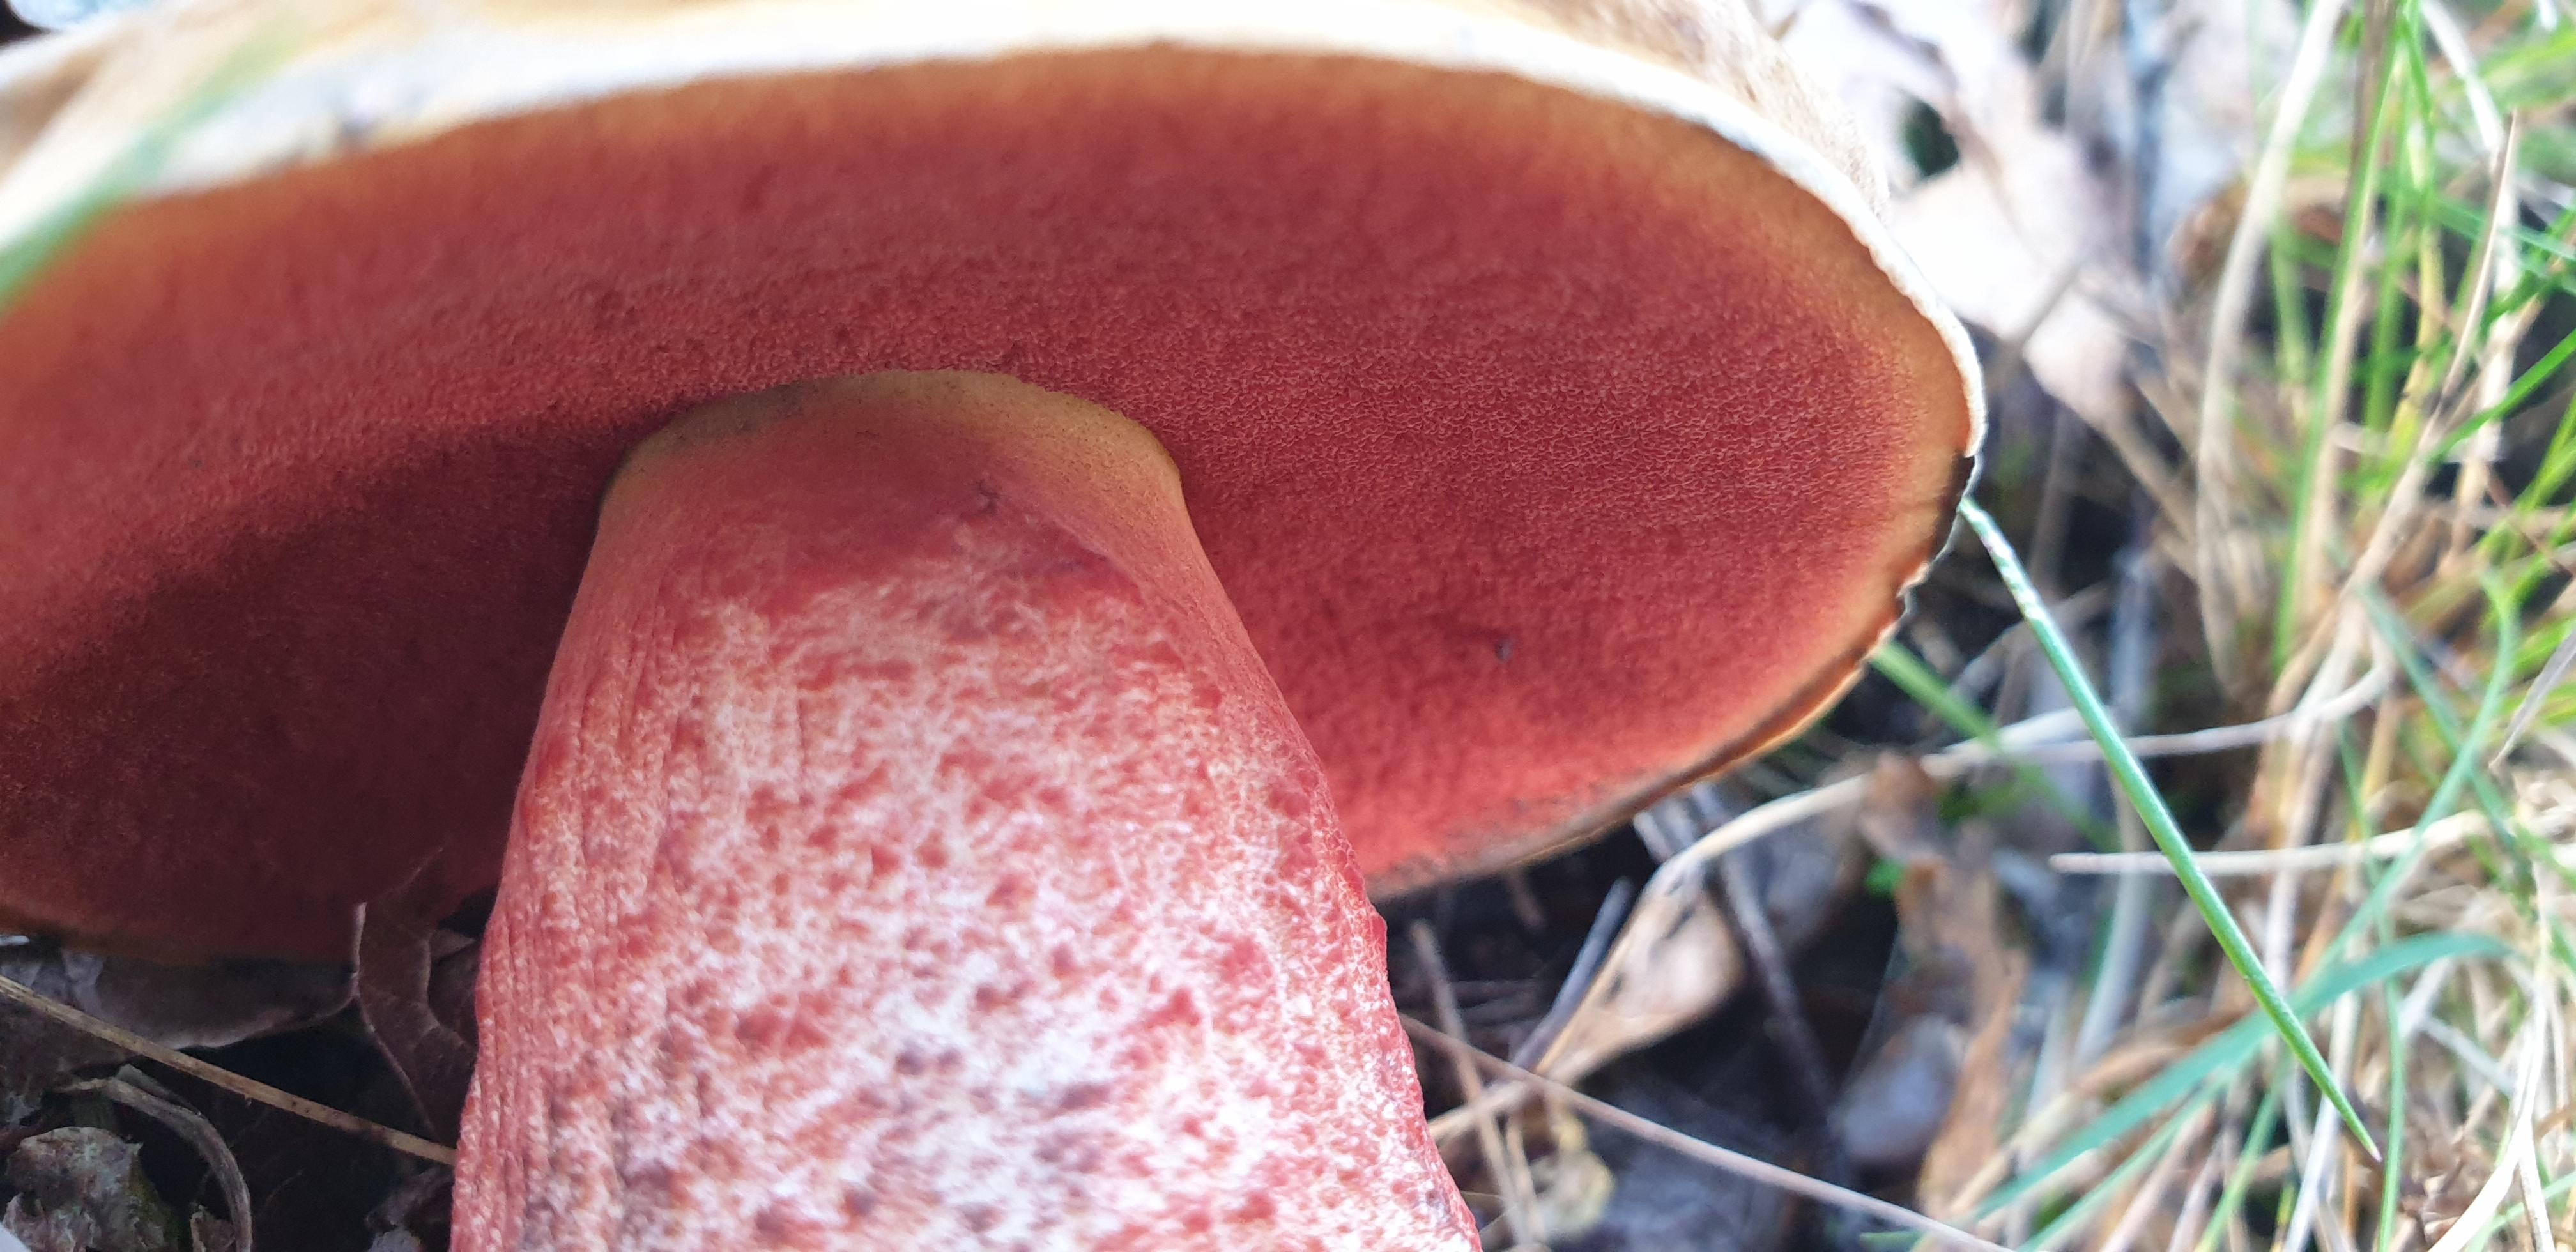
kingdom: Fungi
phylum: Basidiomycota
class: Agaricomycetes
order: Boletales
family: Boletaceae
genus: Neoboletus
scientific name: Neoboletus erythropus
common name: punktstokket indigorørhat
